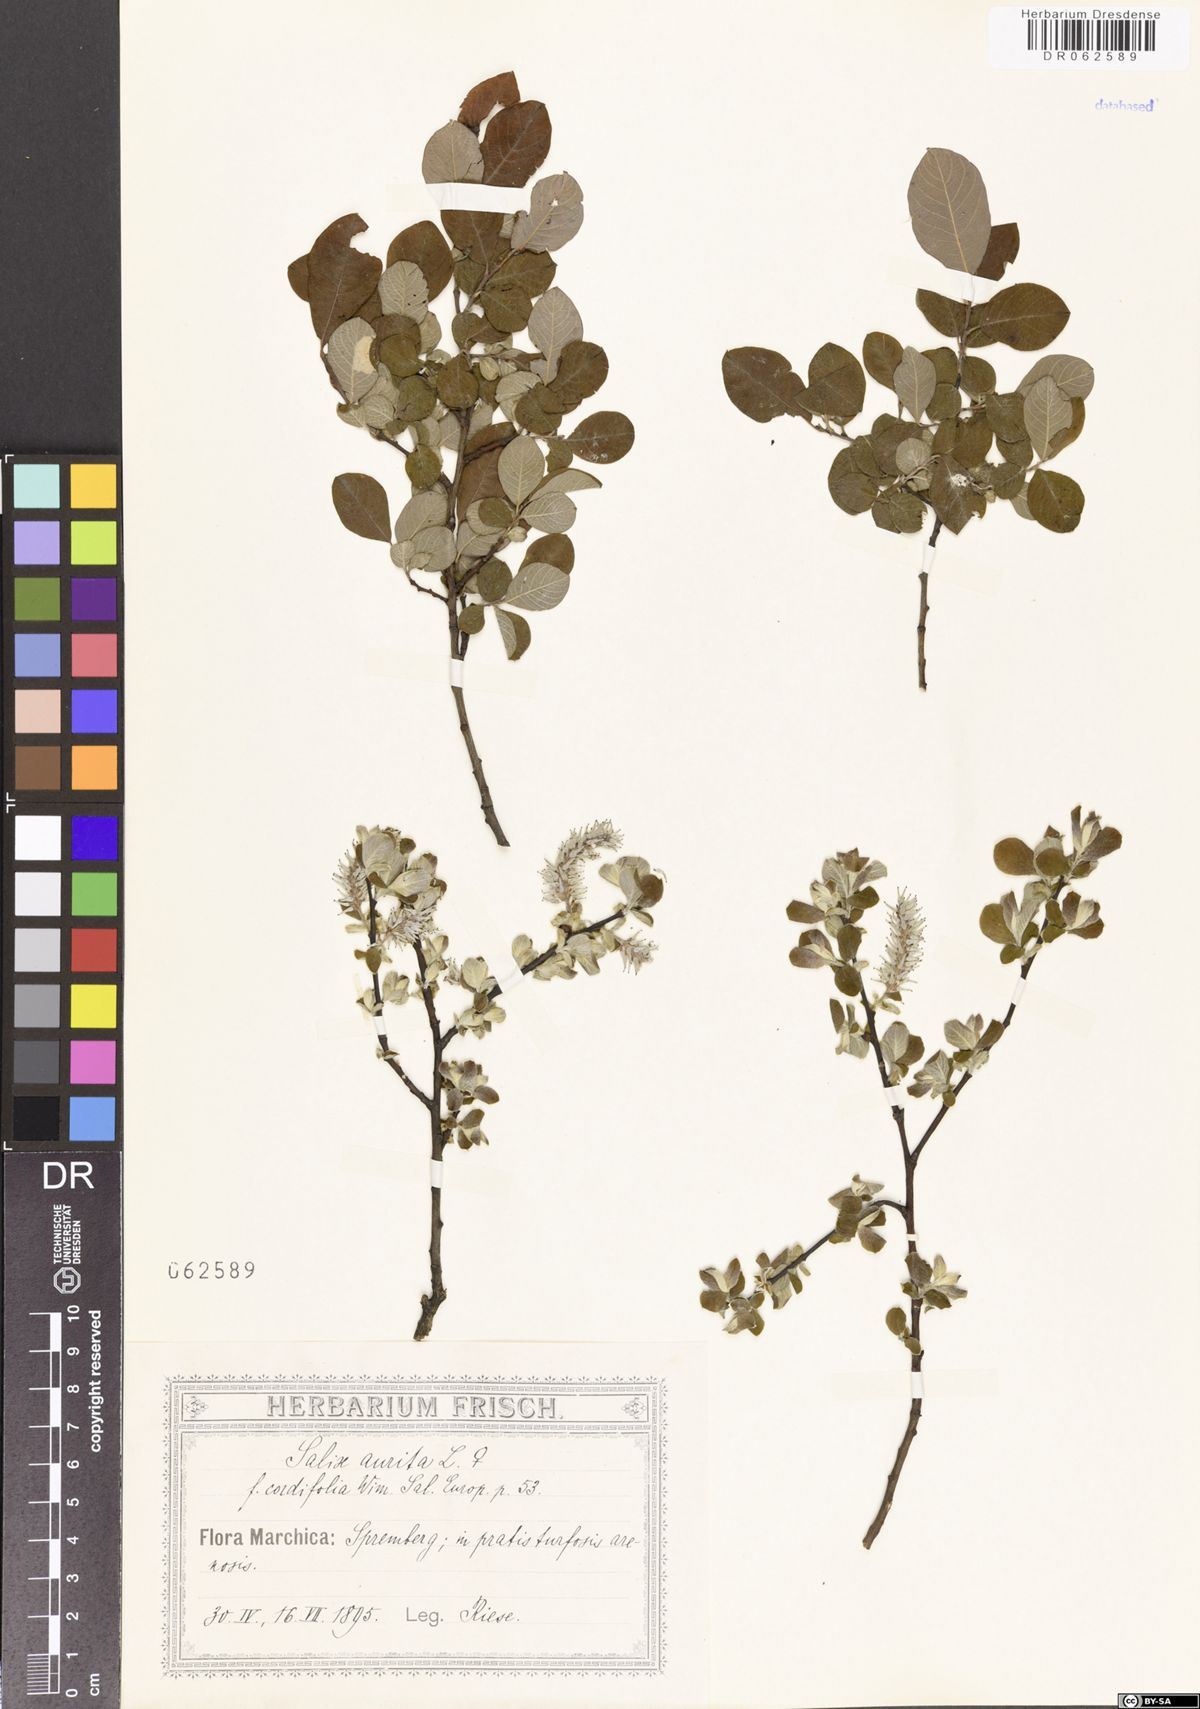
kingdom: Plantae
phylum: Tracheophyta
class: Magnoliopsida
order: Malpighiales
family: Salicaceae
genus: Salix
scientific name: Salix aurita
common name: Eared willow
